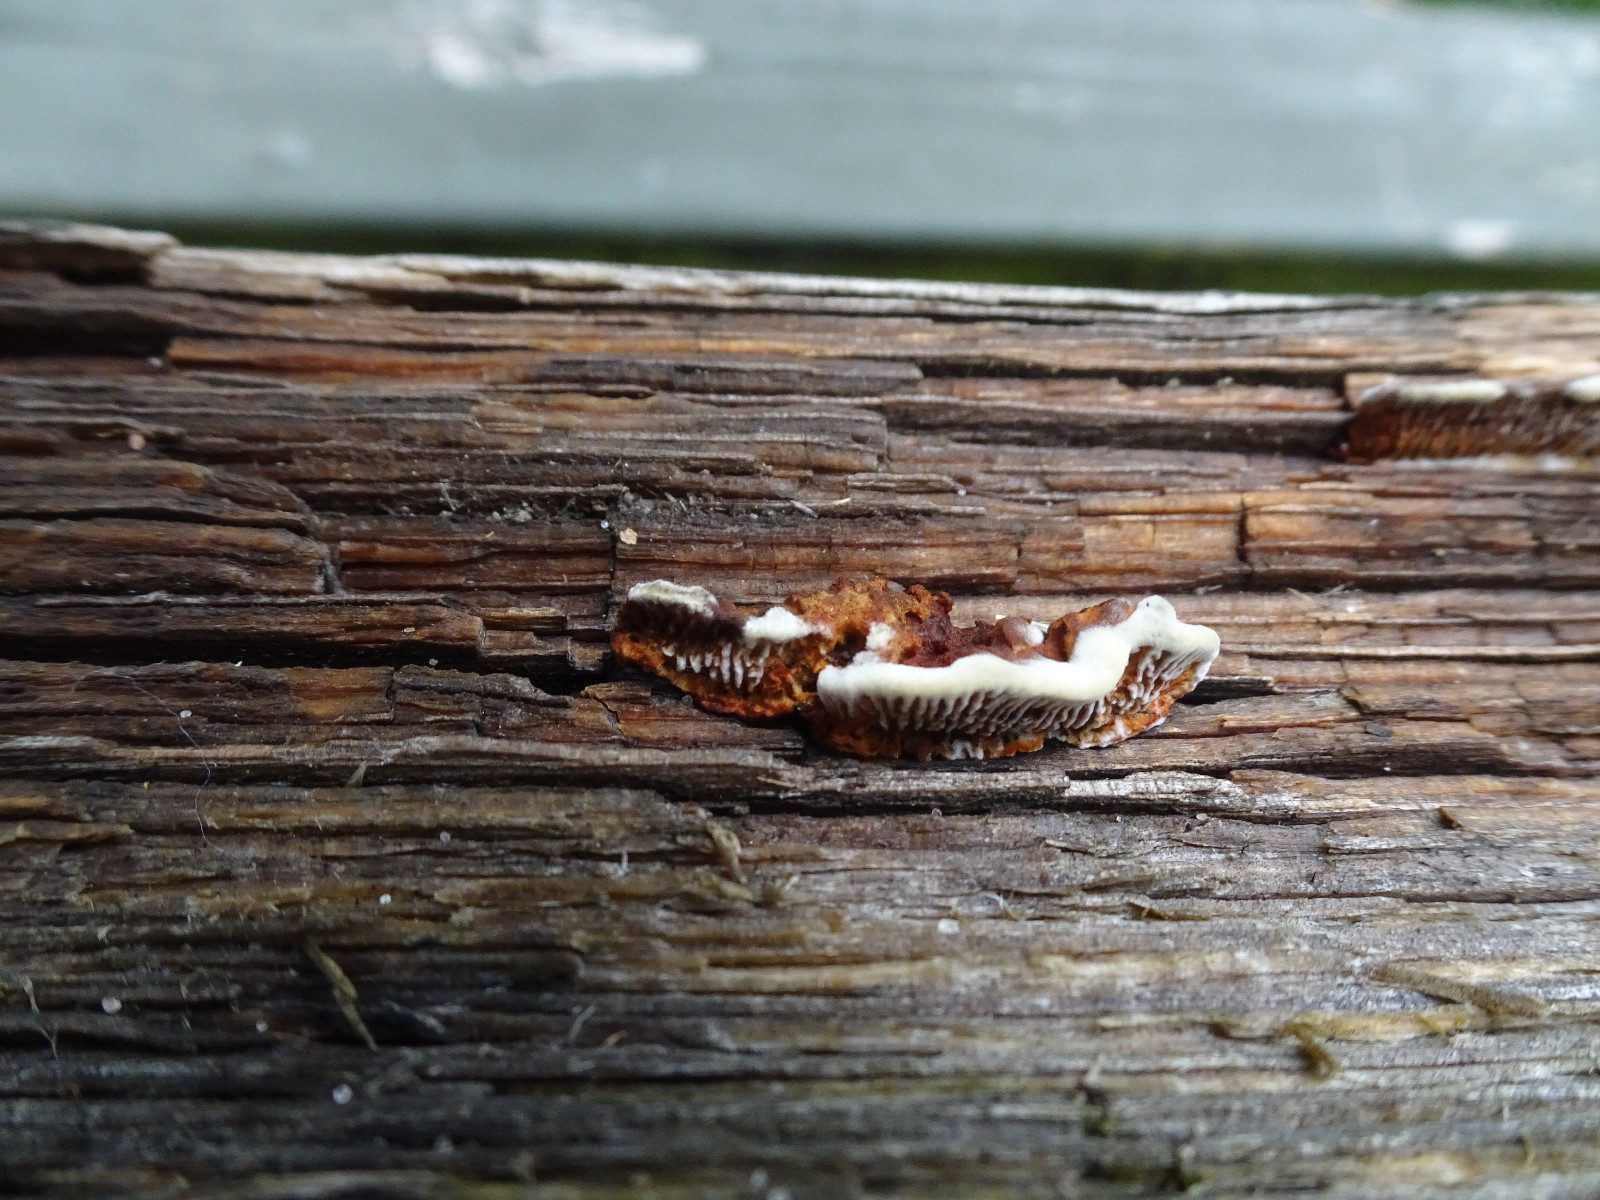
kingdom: Fungi
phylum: Basidiomycota
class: Agaricomycetes
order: Gloeophyllales
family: Gloeophyllaceae
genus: Gloeophyllum
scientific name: Gloeophyllum sepiarium
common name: fyrre-korkhat
